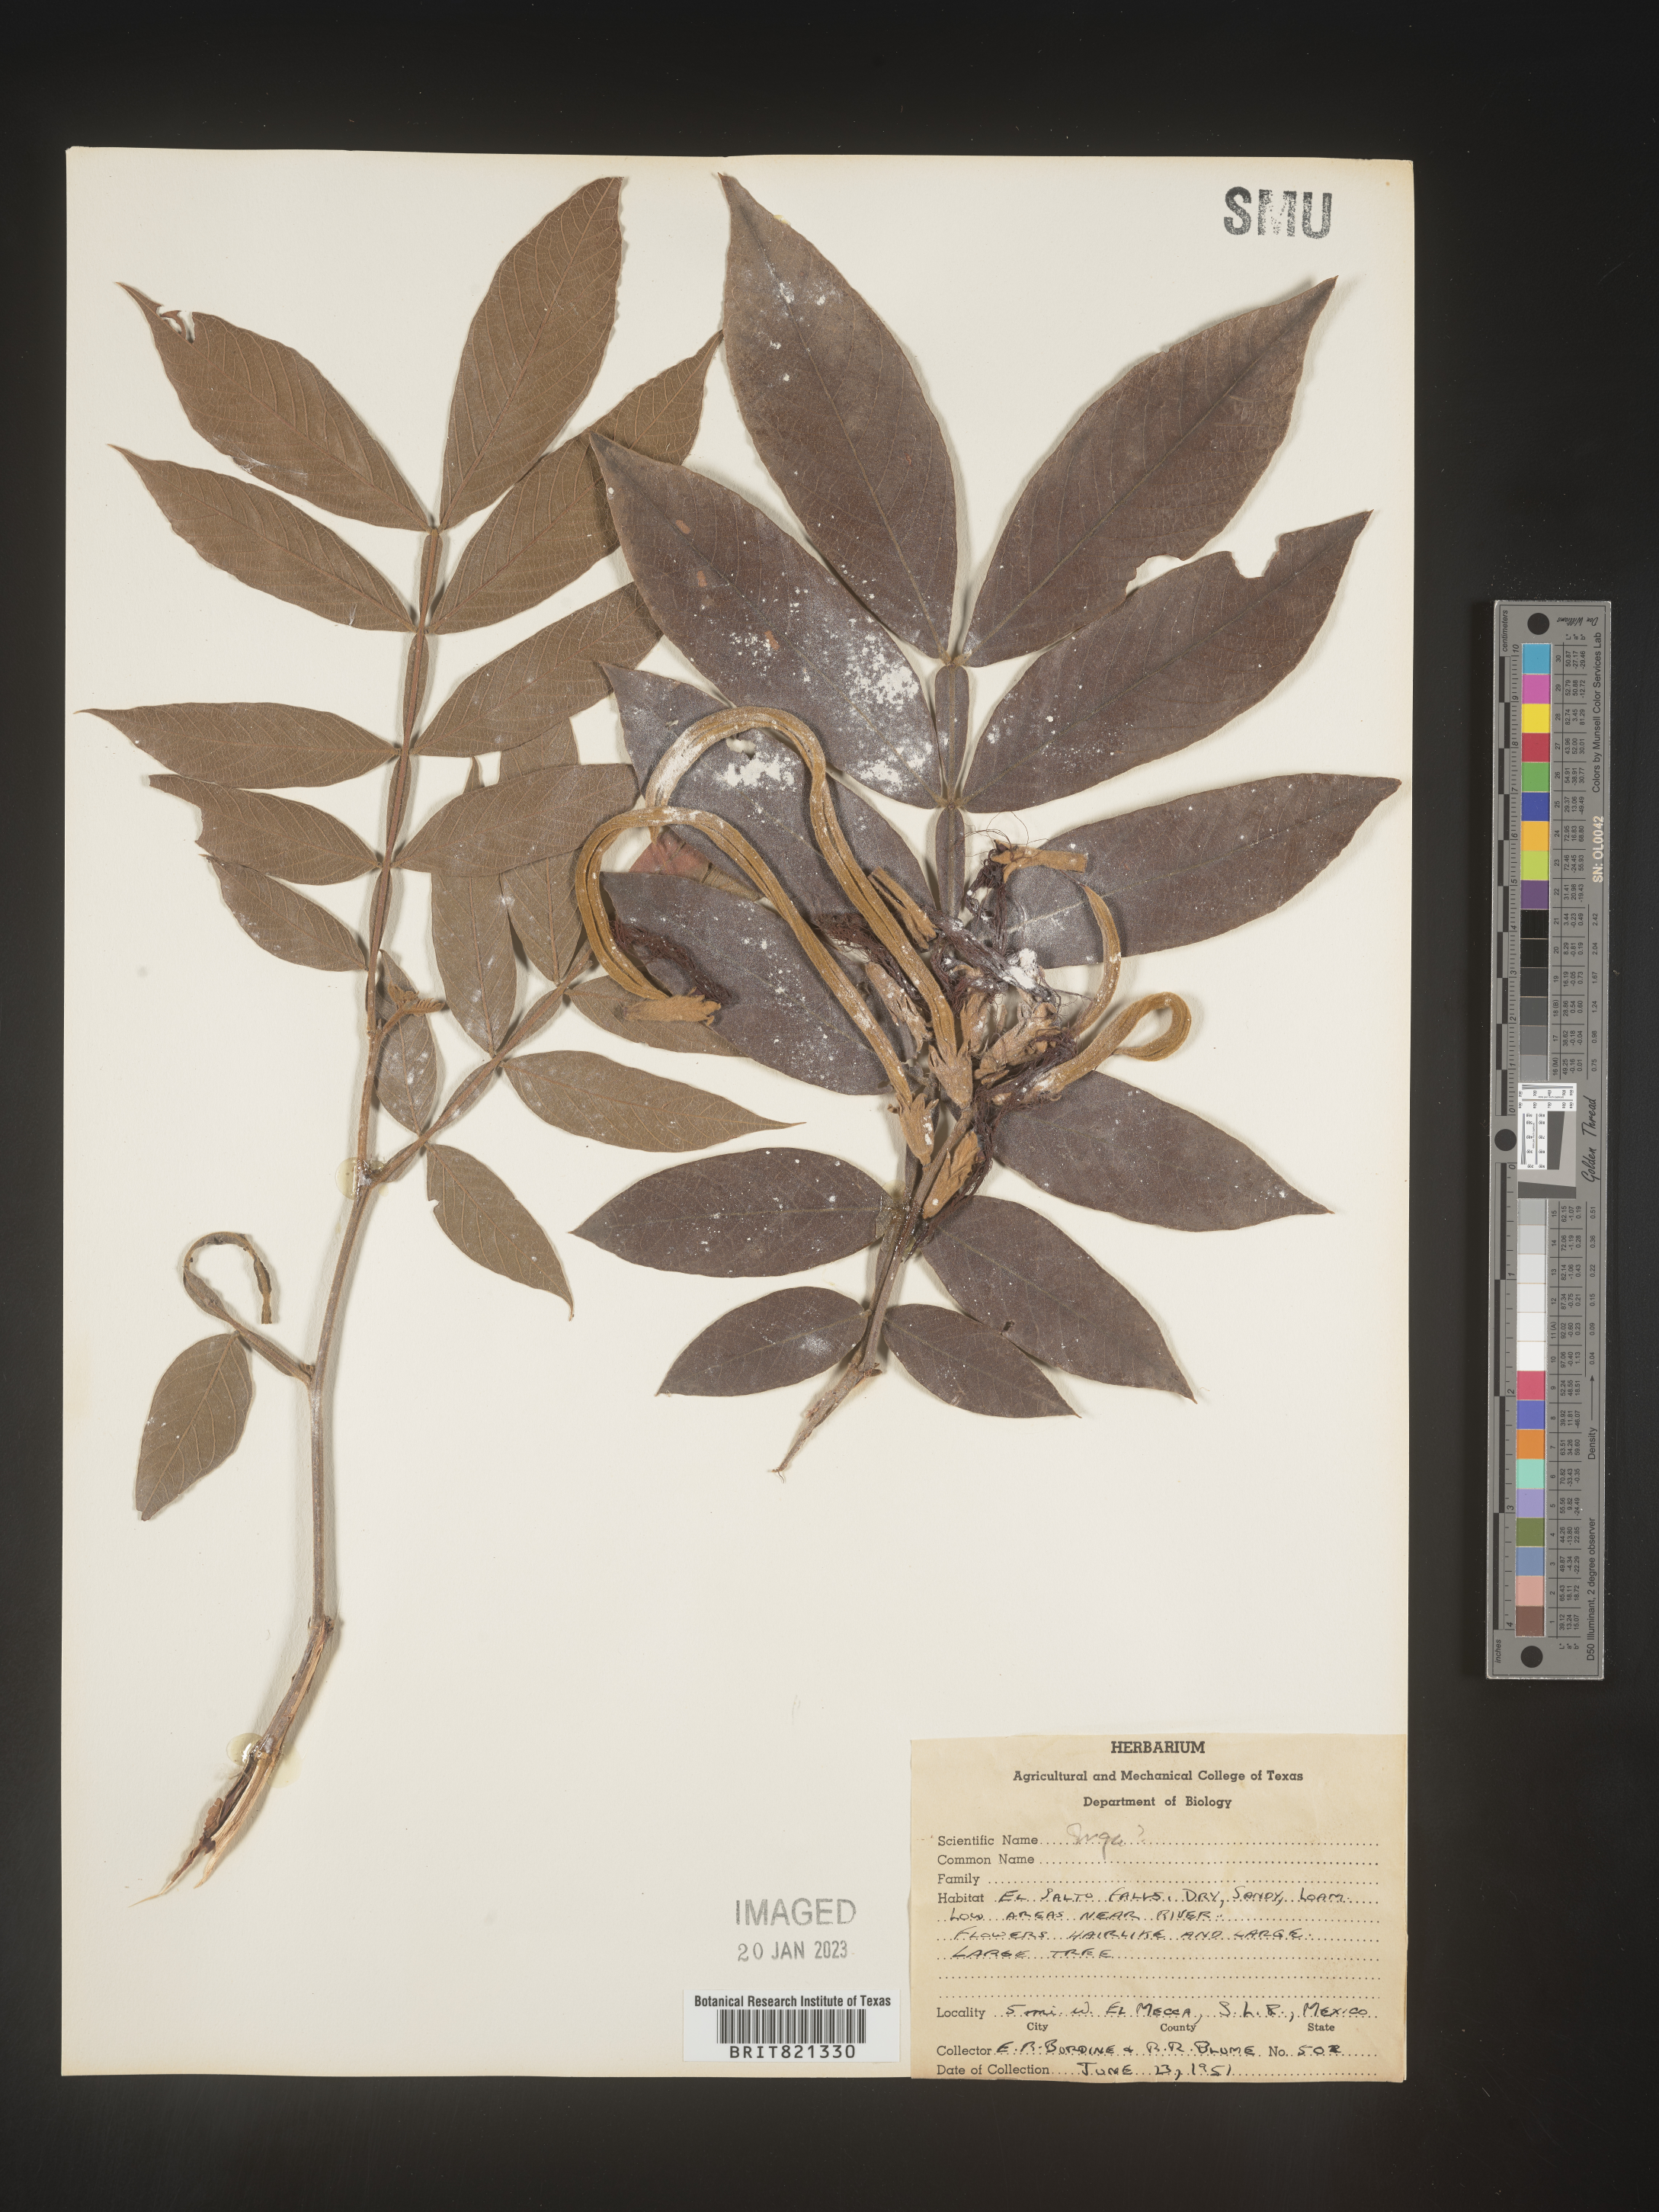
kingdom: Plantae
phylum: Tracheophyta
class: Magnoliopsida
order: Fabales
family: Fabaceae
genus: Inga
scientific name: Inga
